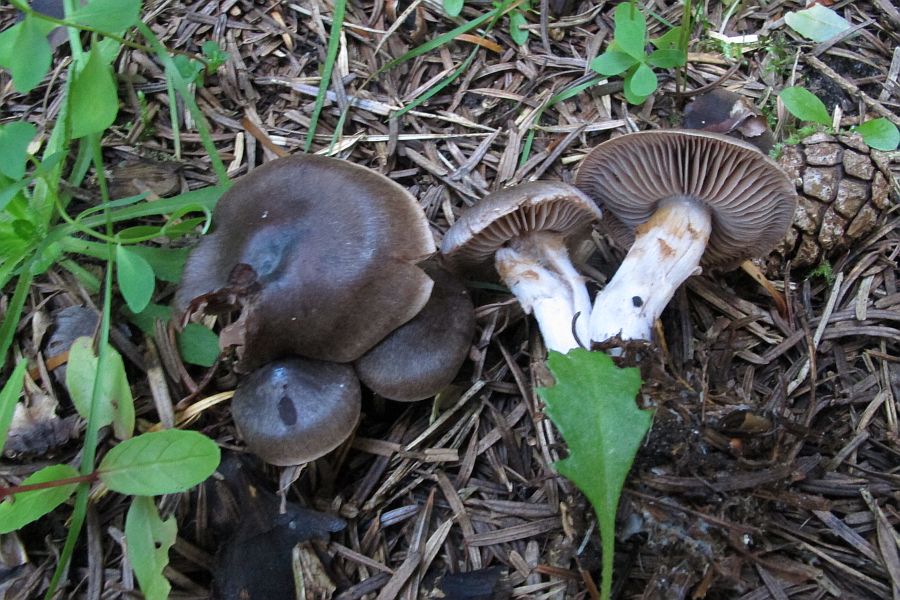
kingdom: Fungi
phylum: Basidiomycota
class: Agaricomycetes
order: Agaricales
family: Cortinariaceae
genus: Cortinarius
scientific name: Cortinarius inconspicuus
